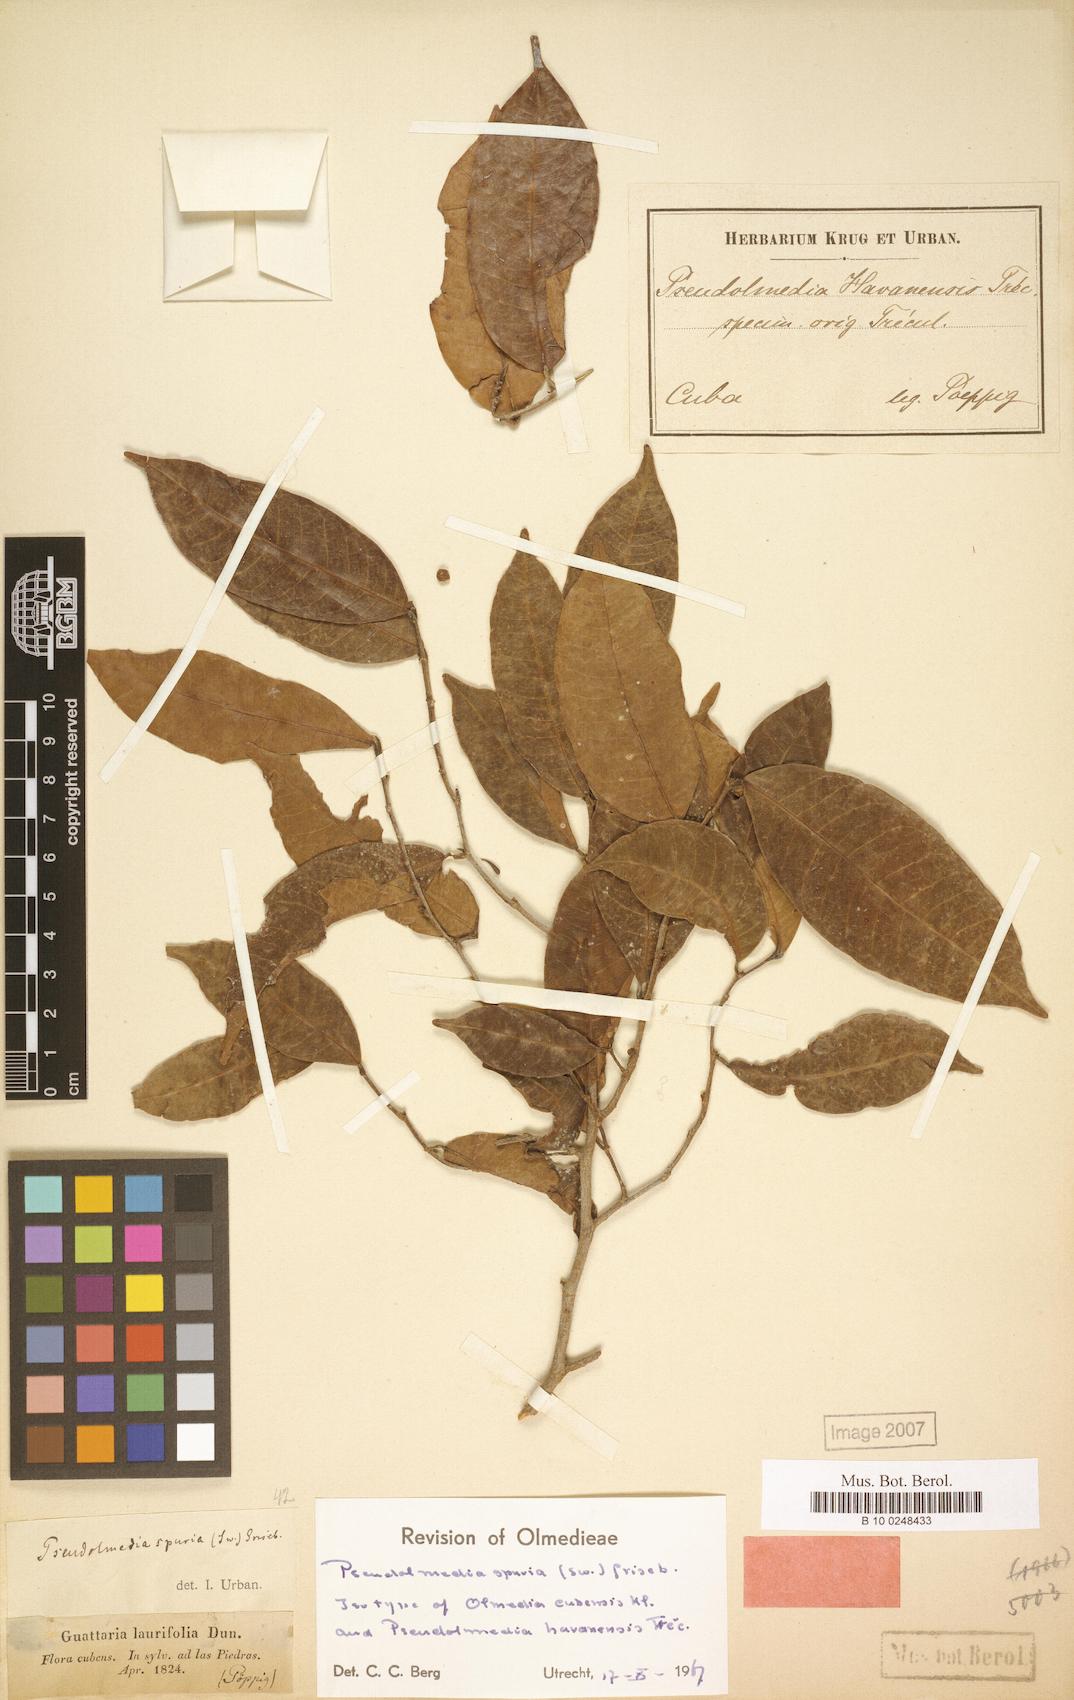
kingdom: Plantae
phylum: Tracheophyta
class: Magnoliopsida
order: Rosales
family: Moraceae
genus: Pseudolmedia
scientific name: Pseudolmedia spuria
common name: Bastard-cherry
